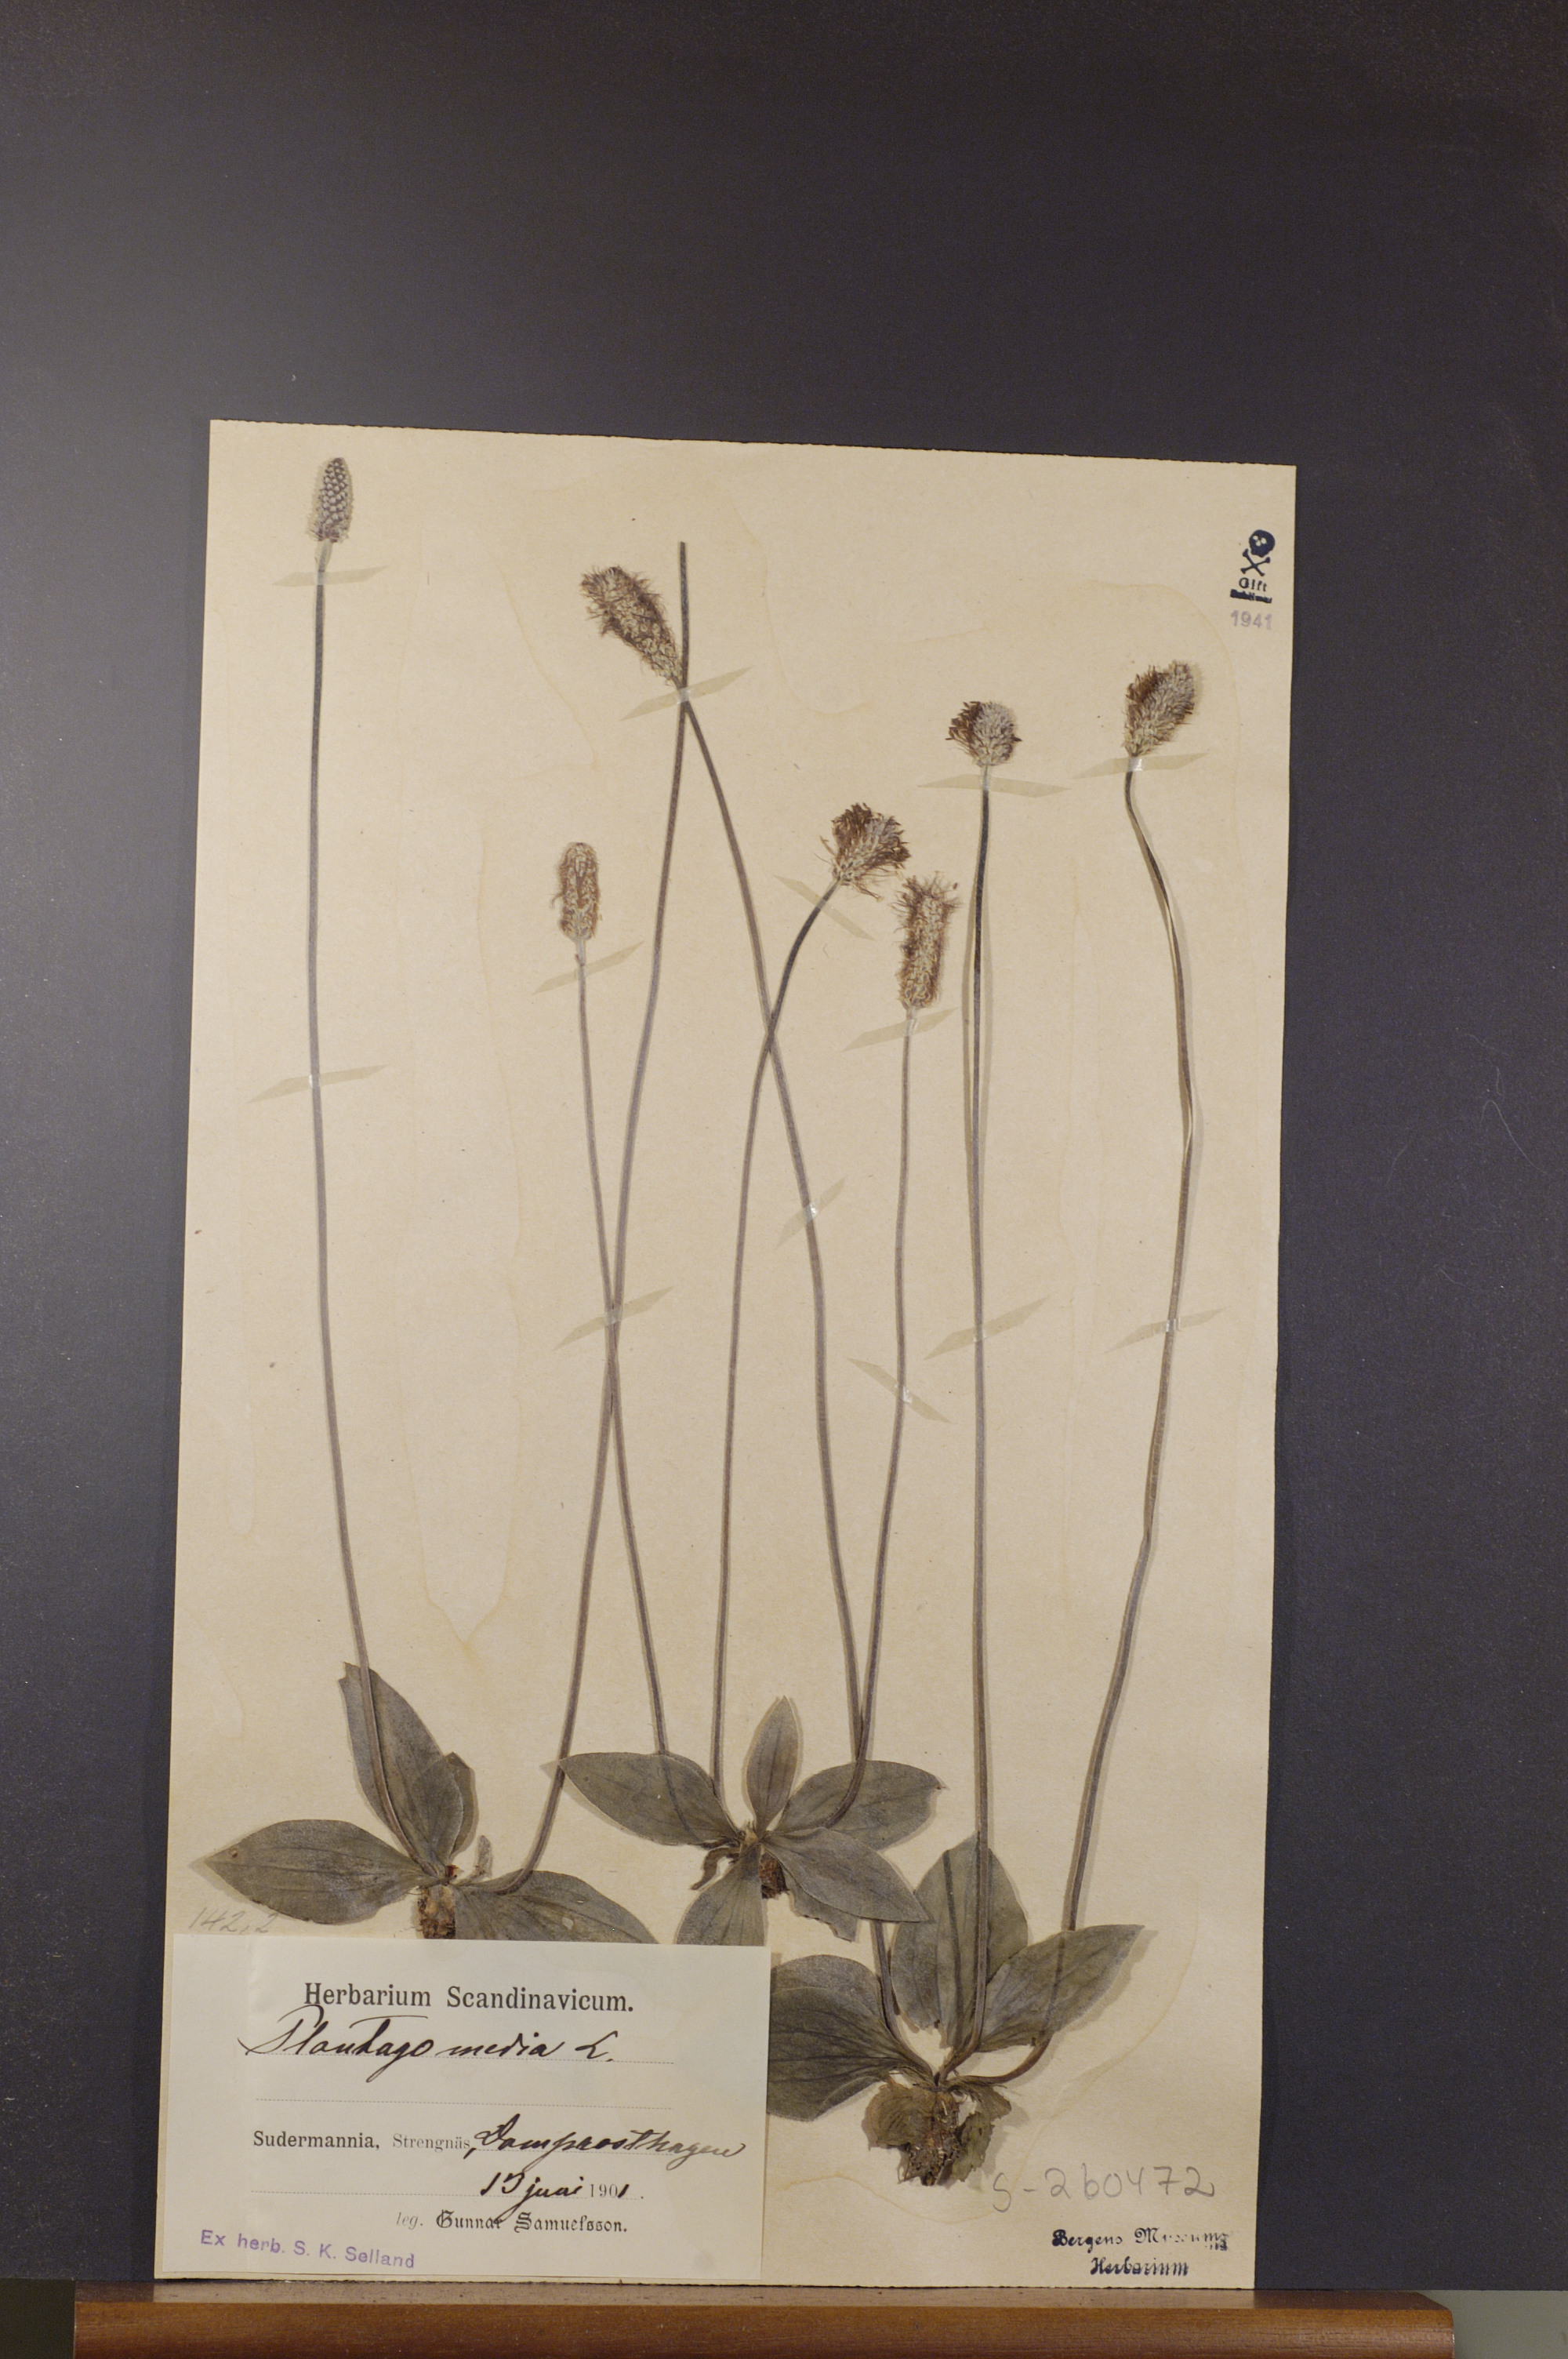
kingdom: Plantae
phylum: Tracheophyta
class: Magnoliopsida
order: Lamiales
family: Plantaginaceae
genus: Plantago
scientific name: Plantago media
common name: Hoary plantain
